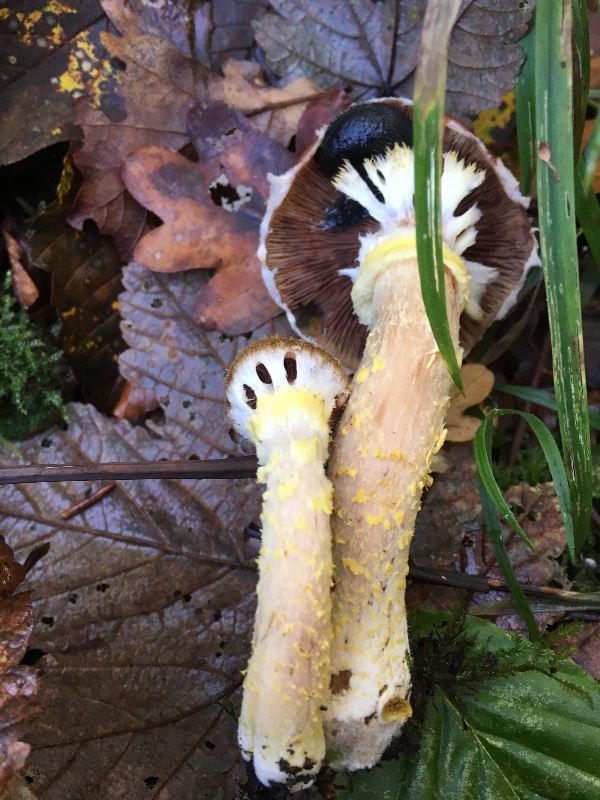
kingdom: Fungi
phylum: Basidiomycota
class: Agaricomycetes
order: Agaricales
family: Physalacriaceae
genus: Armillaria
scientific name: Armillaria lutea
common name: køllestokket honningsvamp
